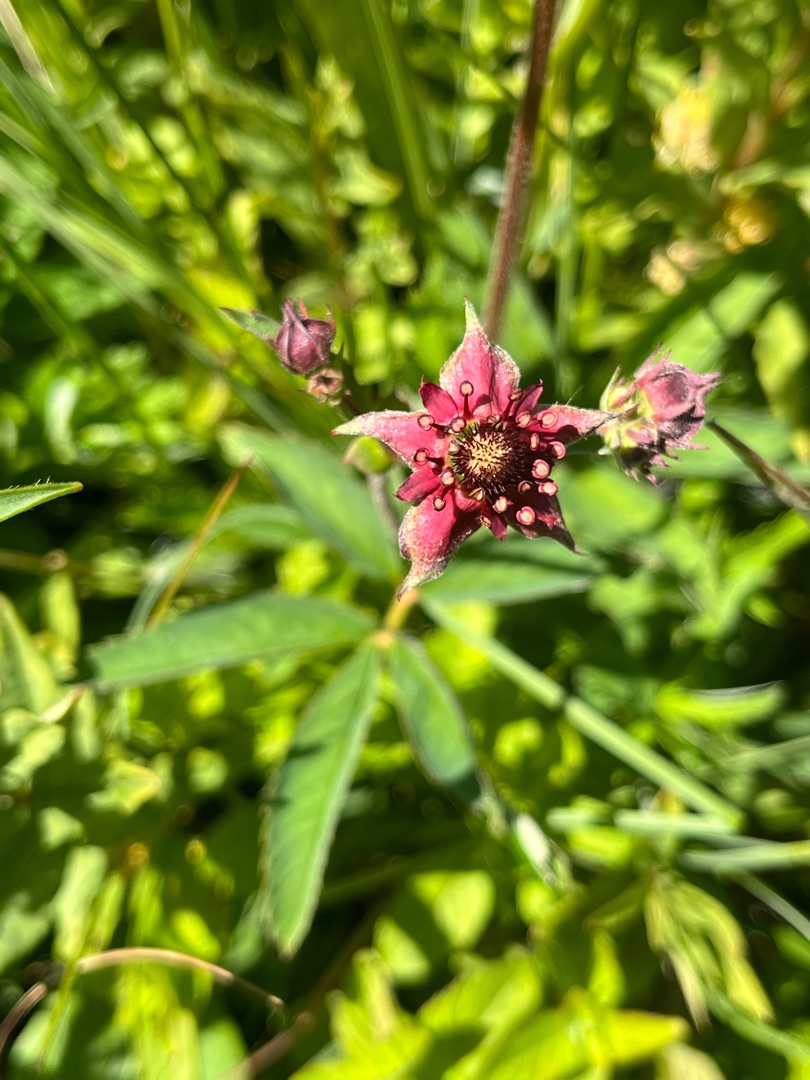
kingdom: Plantae
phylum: Tracheophyta
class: Magnoliopsida
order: Rosales
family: Rosaceae
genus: Comarum
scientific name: Comarum palustre
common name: Kragefod
